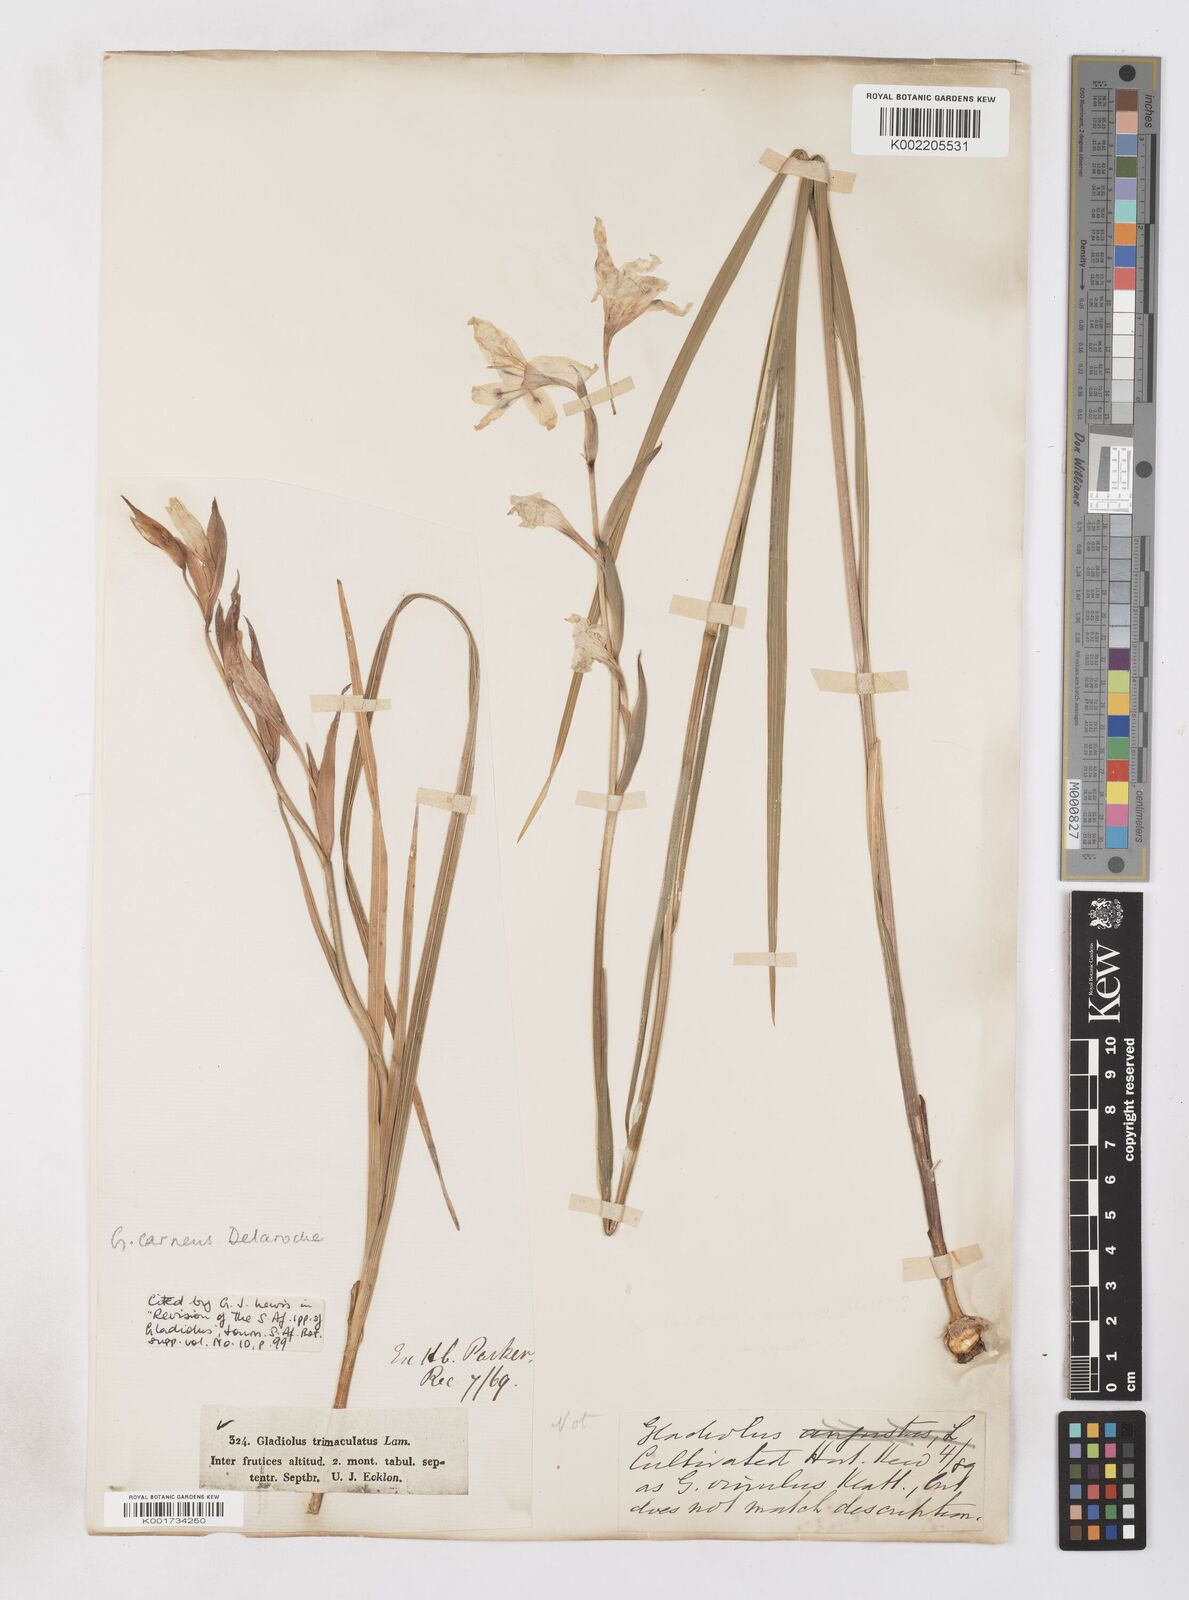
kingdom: Plantae
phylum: Tracheophyta
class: Liliopsida
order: Asparagales
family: Iridaceae
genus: Gladiolus
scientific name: Gladiolus carneus
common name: Painted-lady
